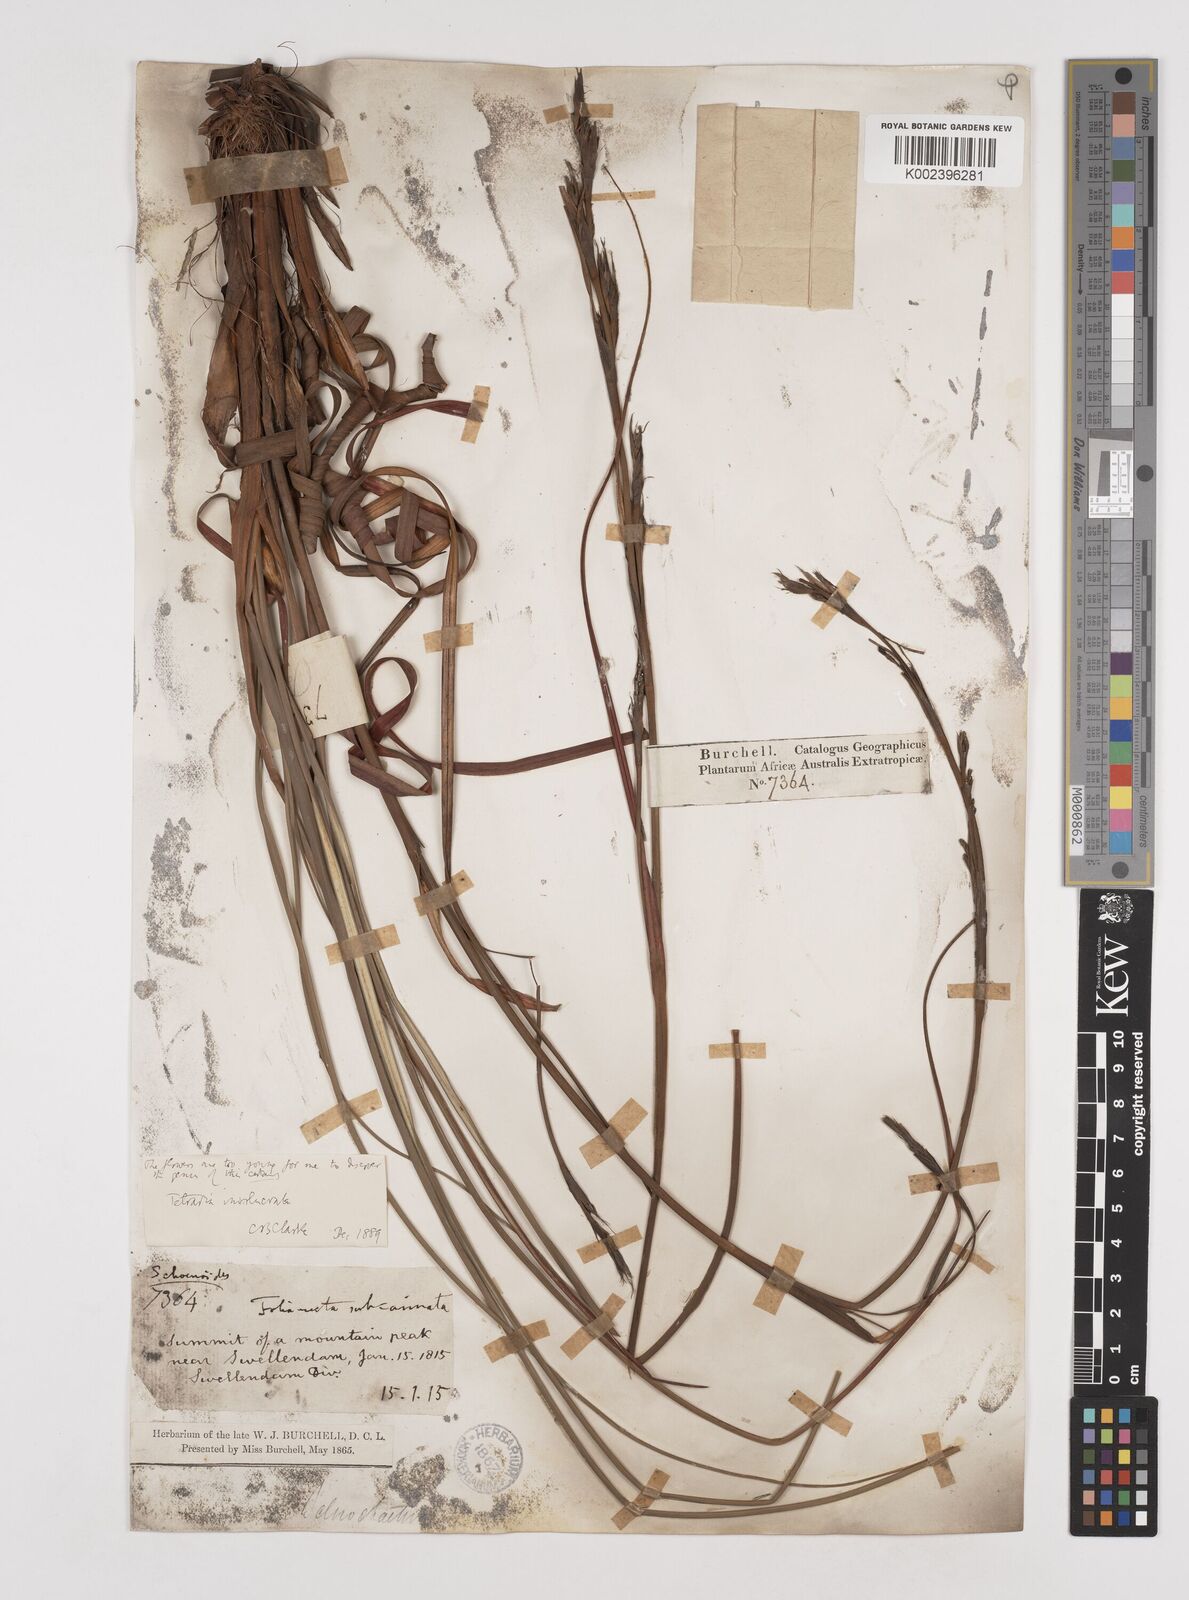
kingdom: Plantae
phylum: Tracheophyta
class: Liliopsida
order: Poales
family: Cyperaceae
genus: Tetraria
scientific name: Tetraria involucrata
